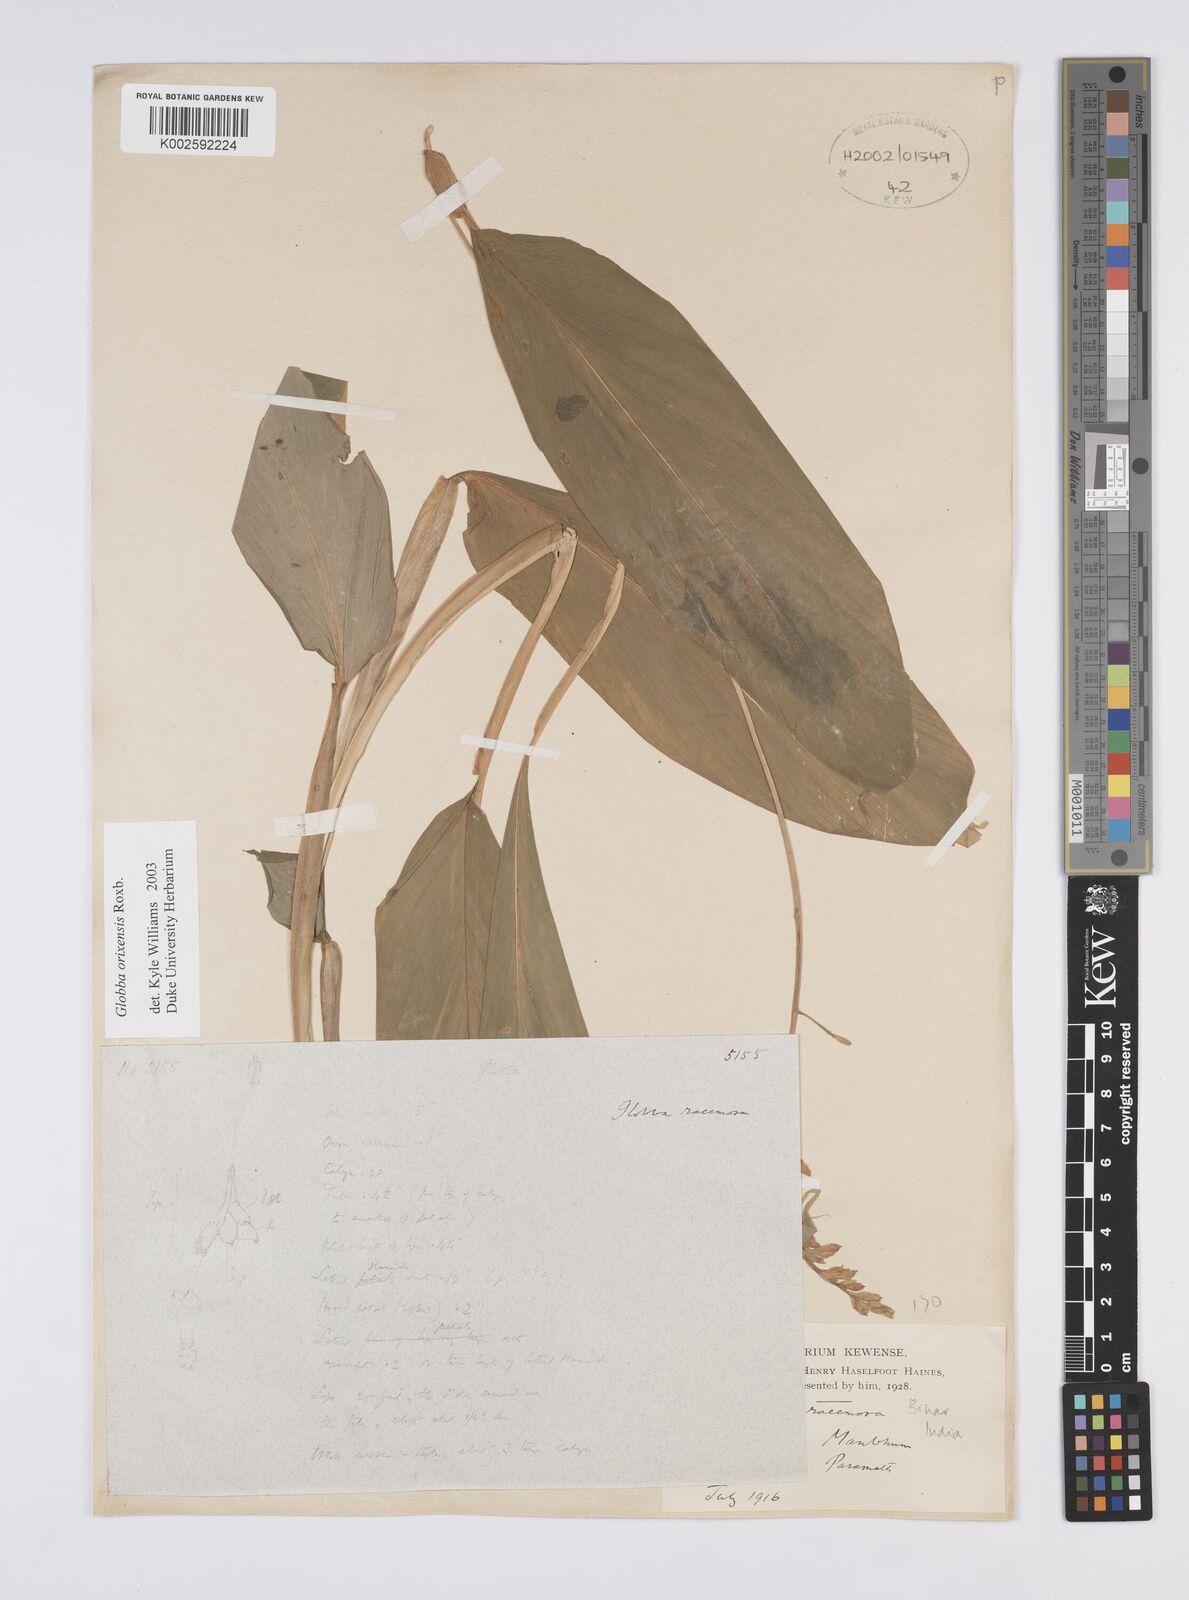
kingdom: Plantae
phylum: Tracheophyta
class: Liliopsida
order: Zingiberales
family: Zingiberaceae
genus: Globba
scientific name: Globba orixensis
